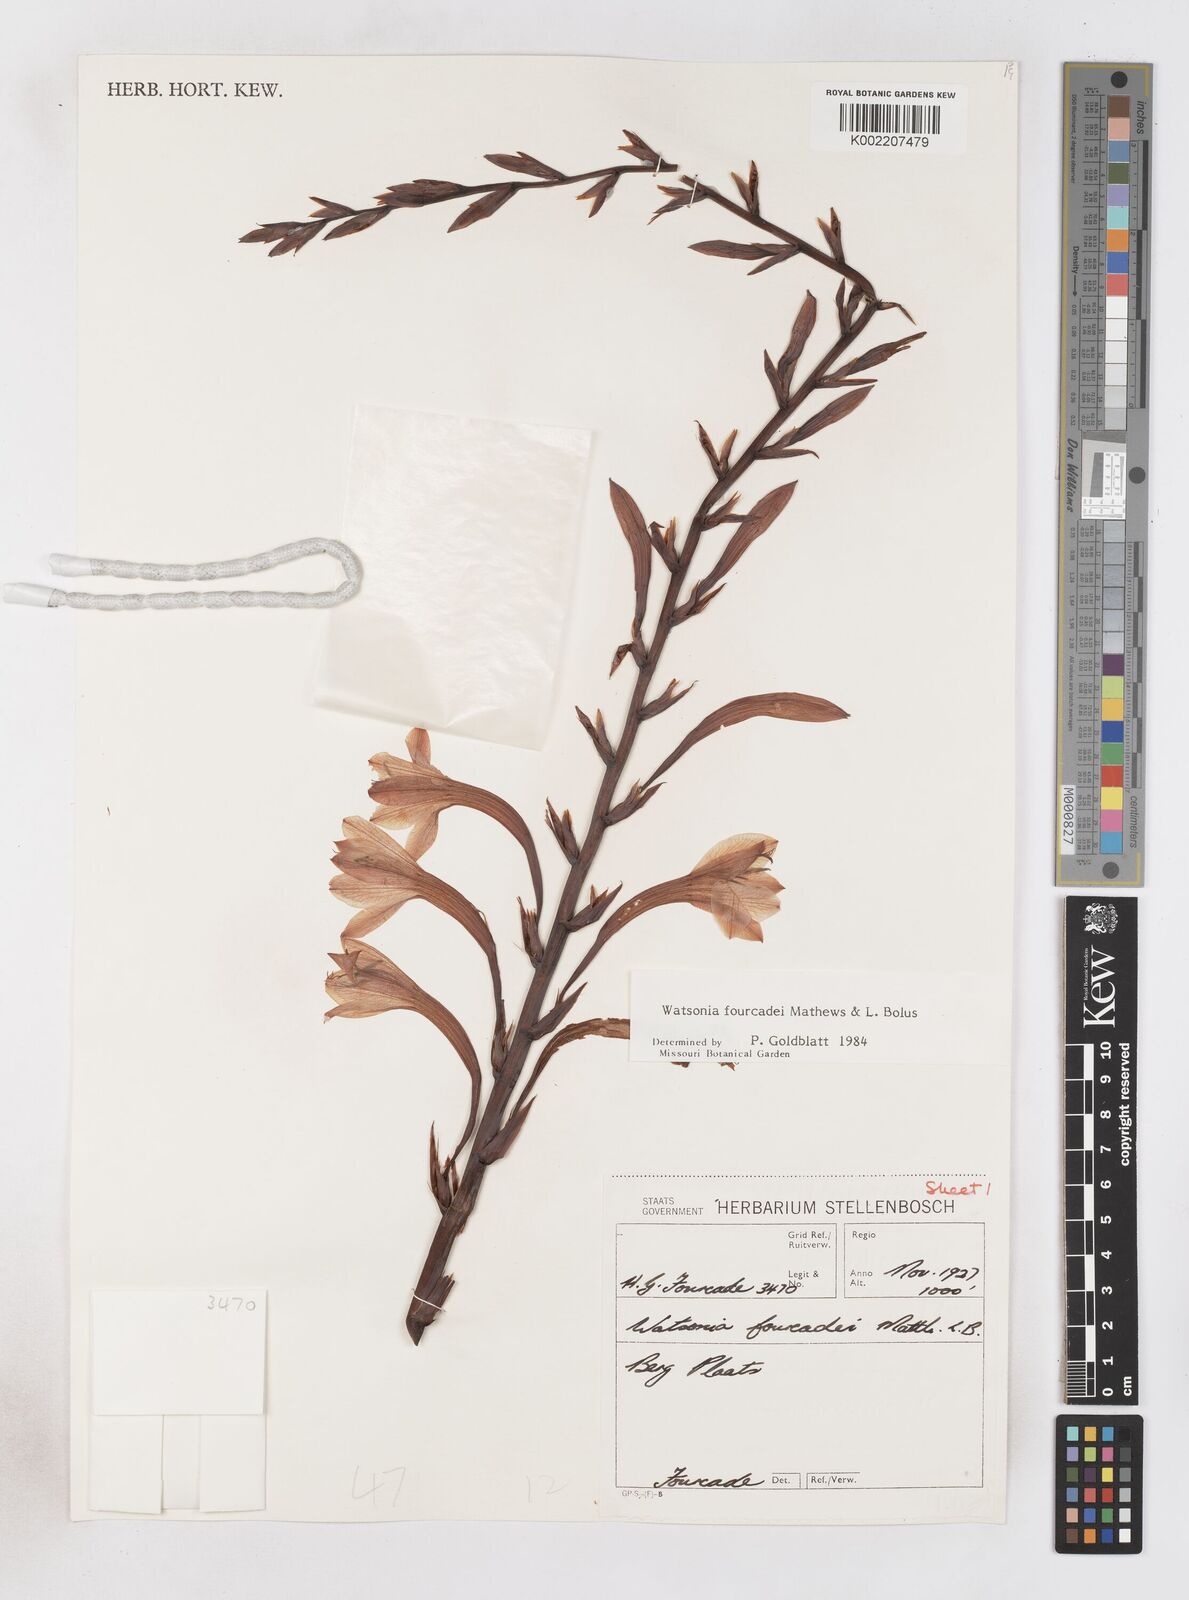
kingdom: Plantae
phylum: Tracheophyta
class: Liliopsida
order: Asparagales
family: Iridaceae
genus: Watsonia
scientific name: Watsonia fourcadei
